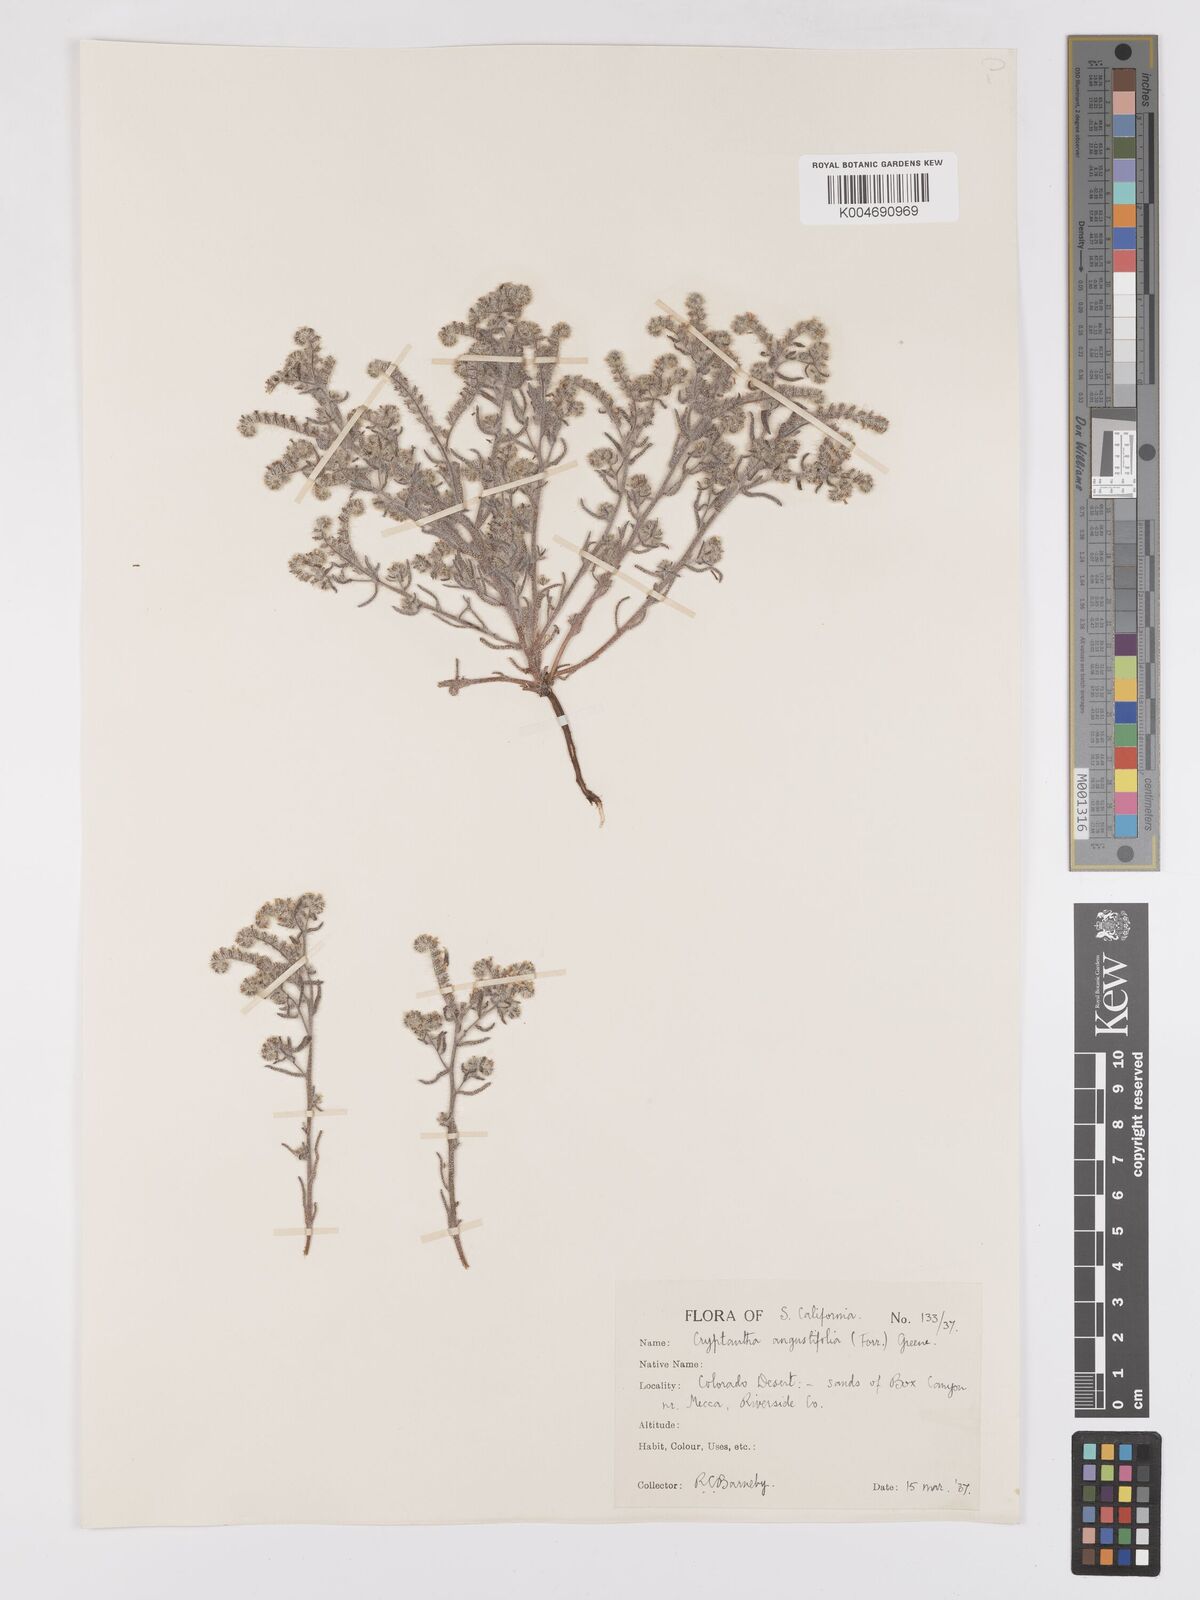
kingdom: Plantae
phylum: Tracheophyta
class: Magnoliopsida
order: Boraginales
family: Boraginaceae
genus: Johnstonella
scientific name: Johnstonella angustifolia
